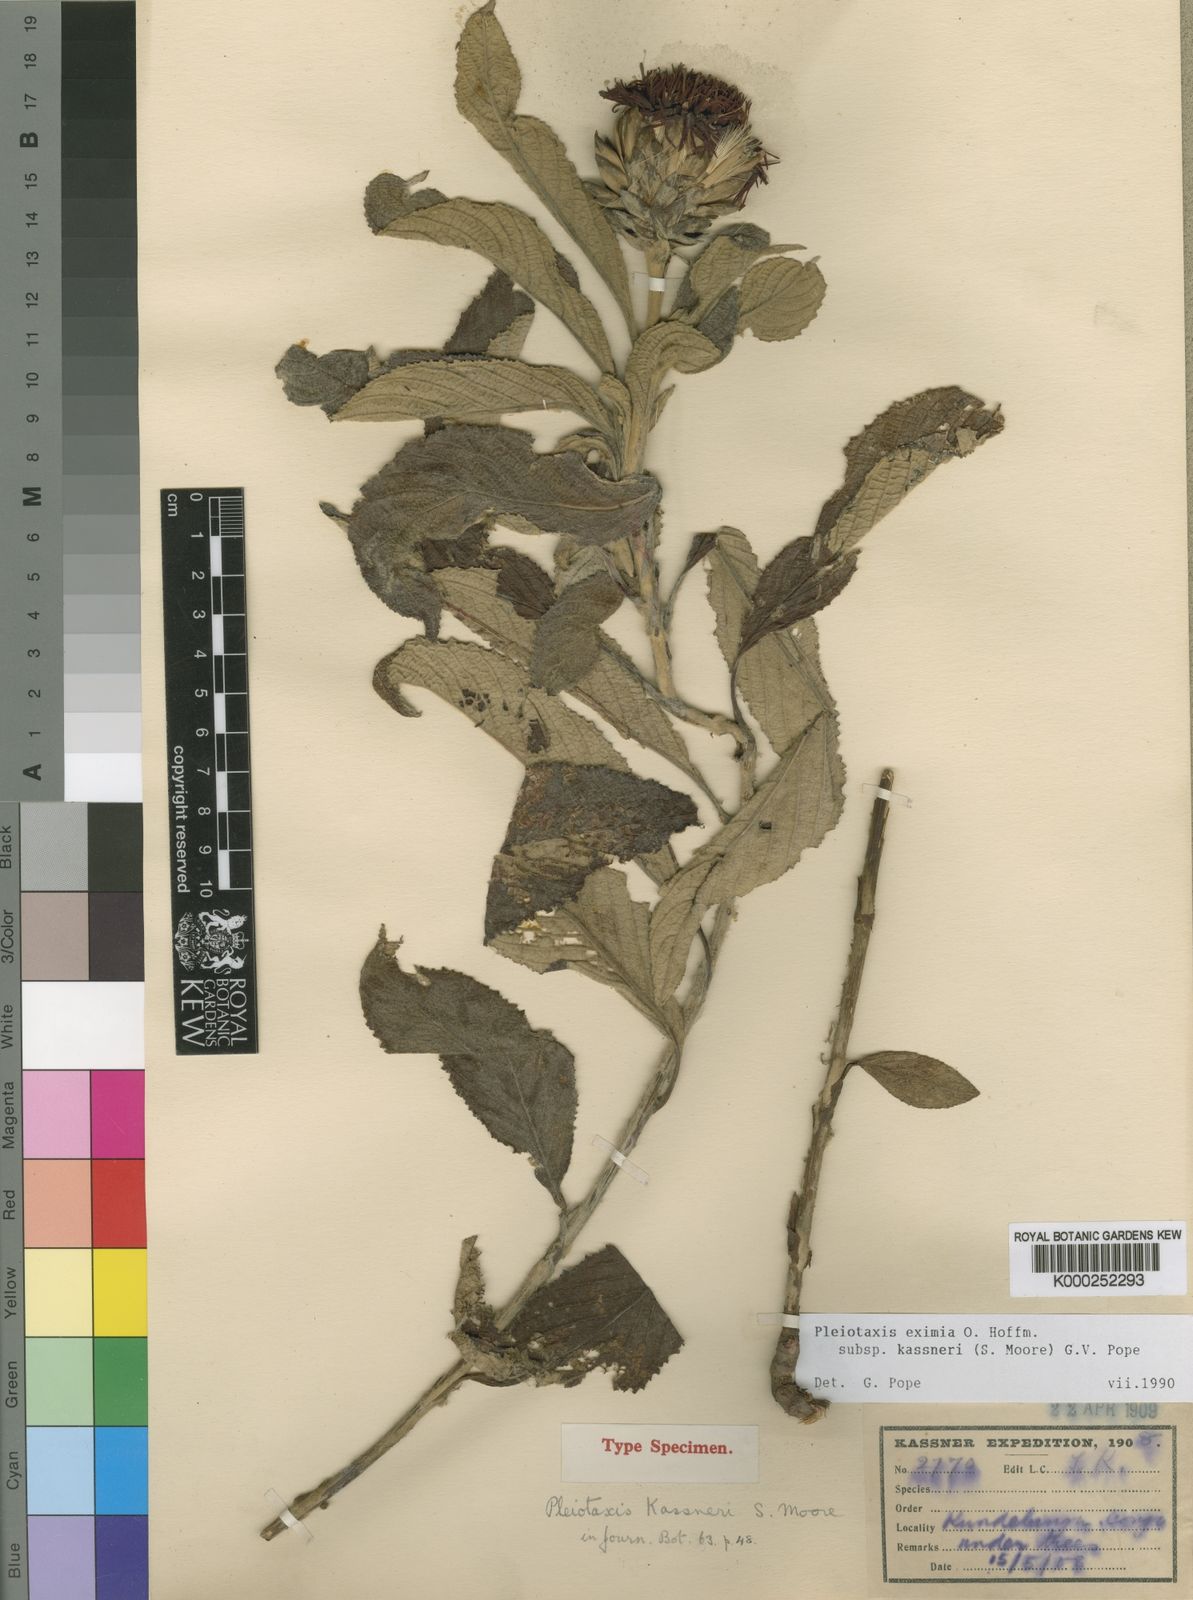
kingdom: Plantae
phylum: Tracheophyta
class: Magnoliopsida
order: Asterales
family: Asteraceae
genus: Pleiotaxis
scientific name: Pleiotaxis eximia
